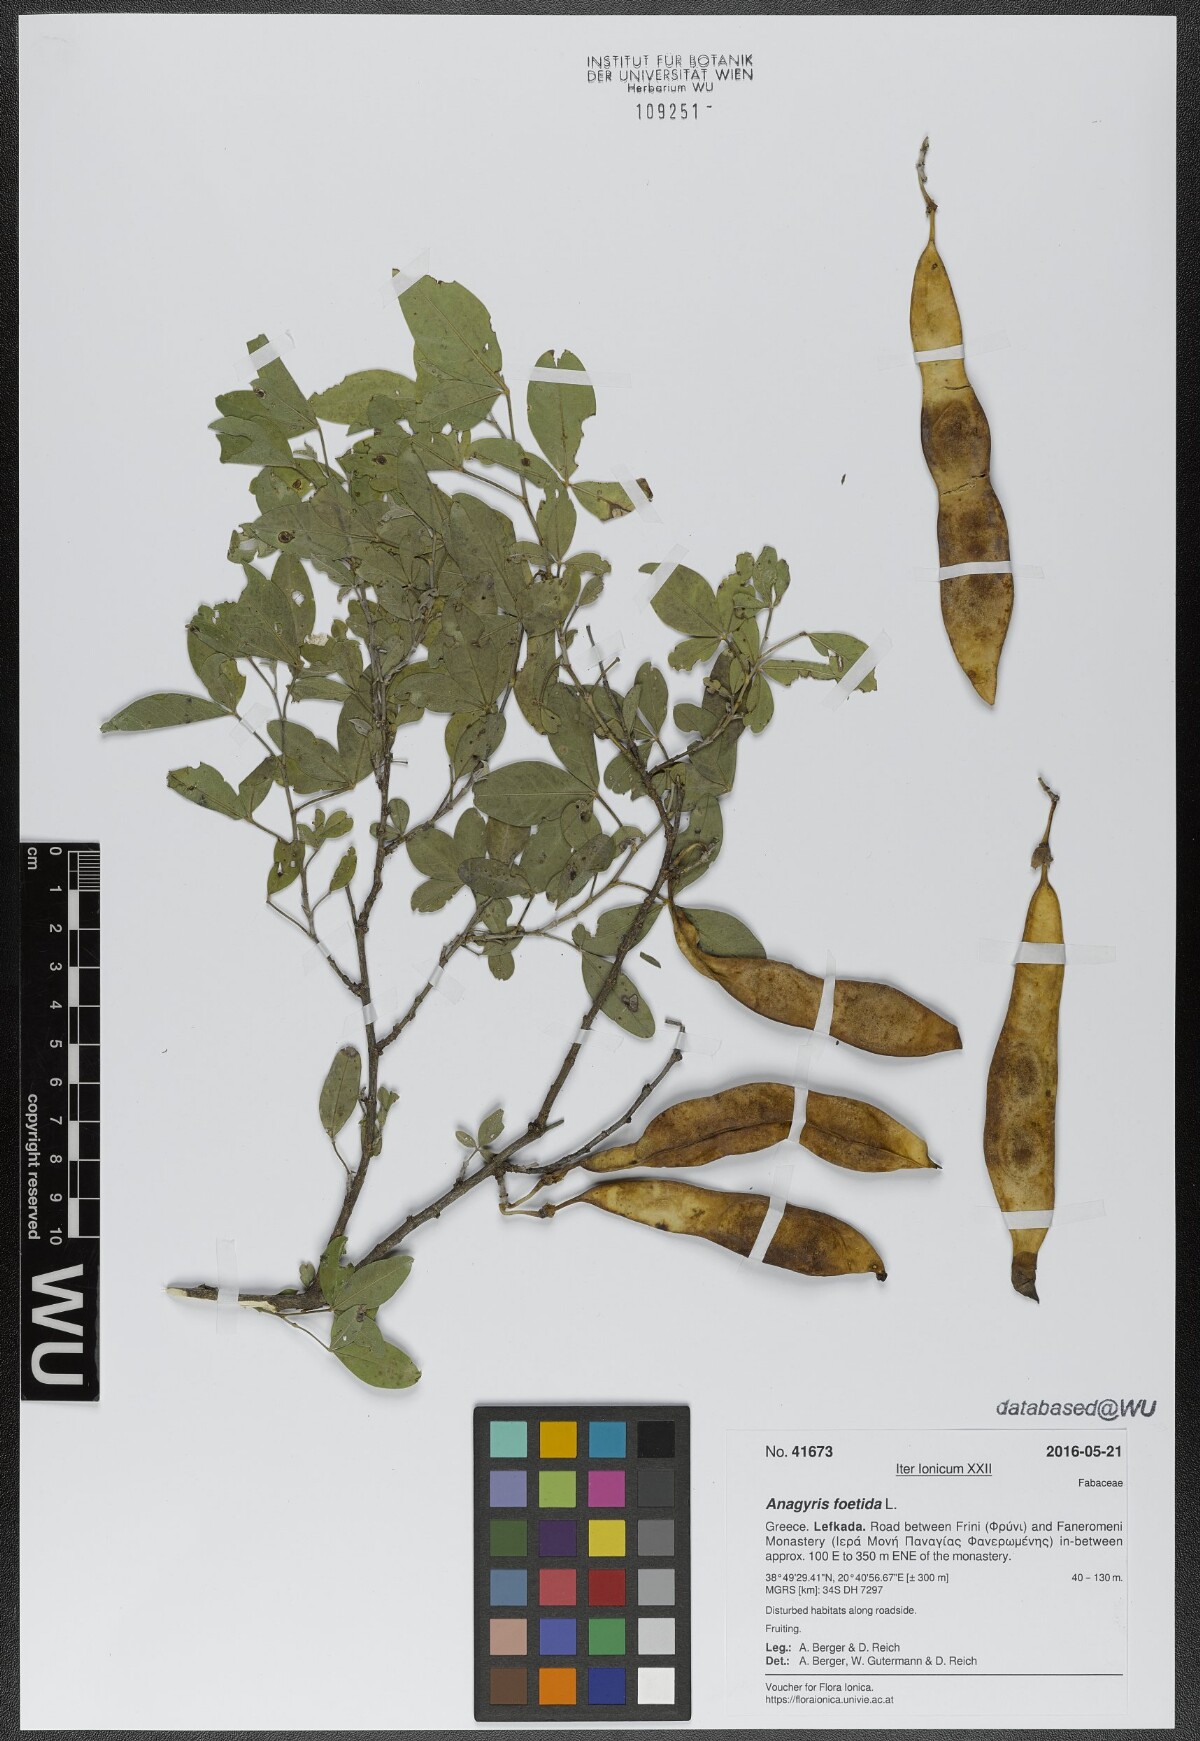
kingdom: Plantae
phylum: Tracheophyta
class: Magnoliopsida
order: Fabales
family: Fabaceae
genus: Anagyris
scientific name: Anagyris foetida
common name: Stinking bean trefoil
